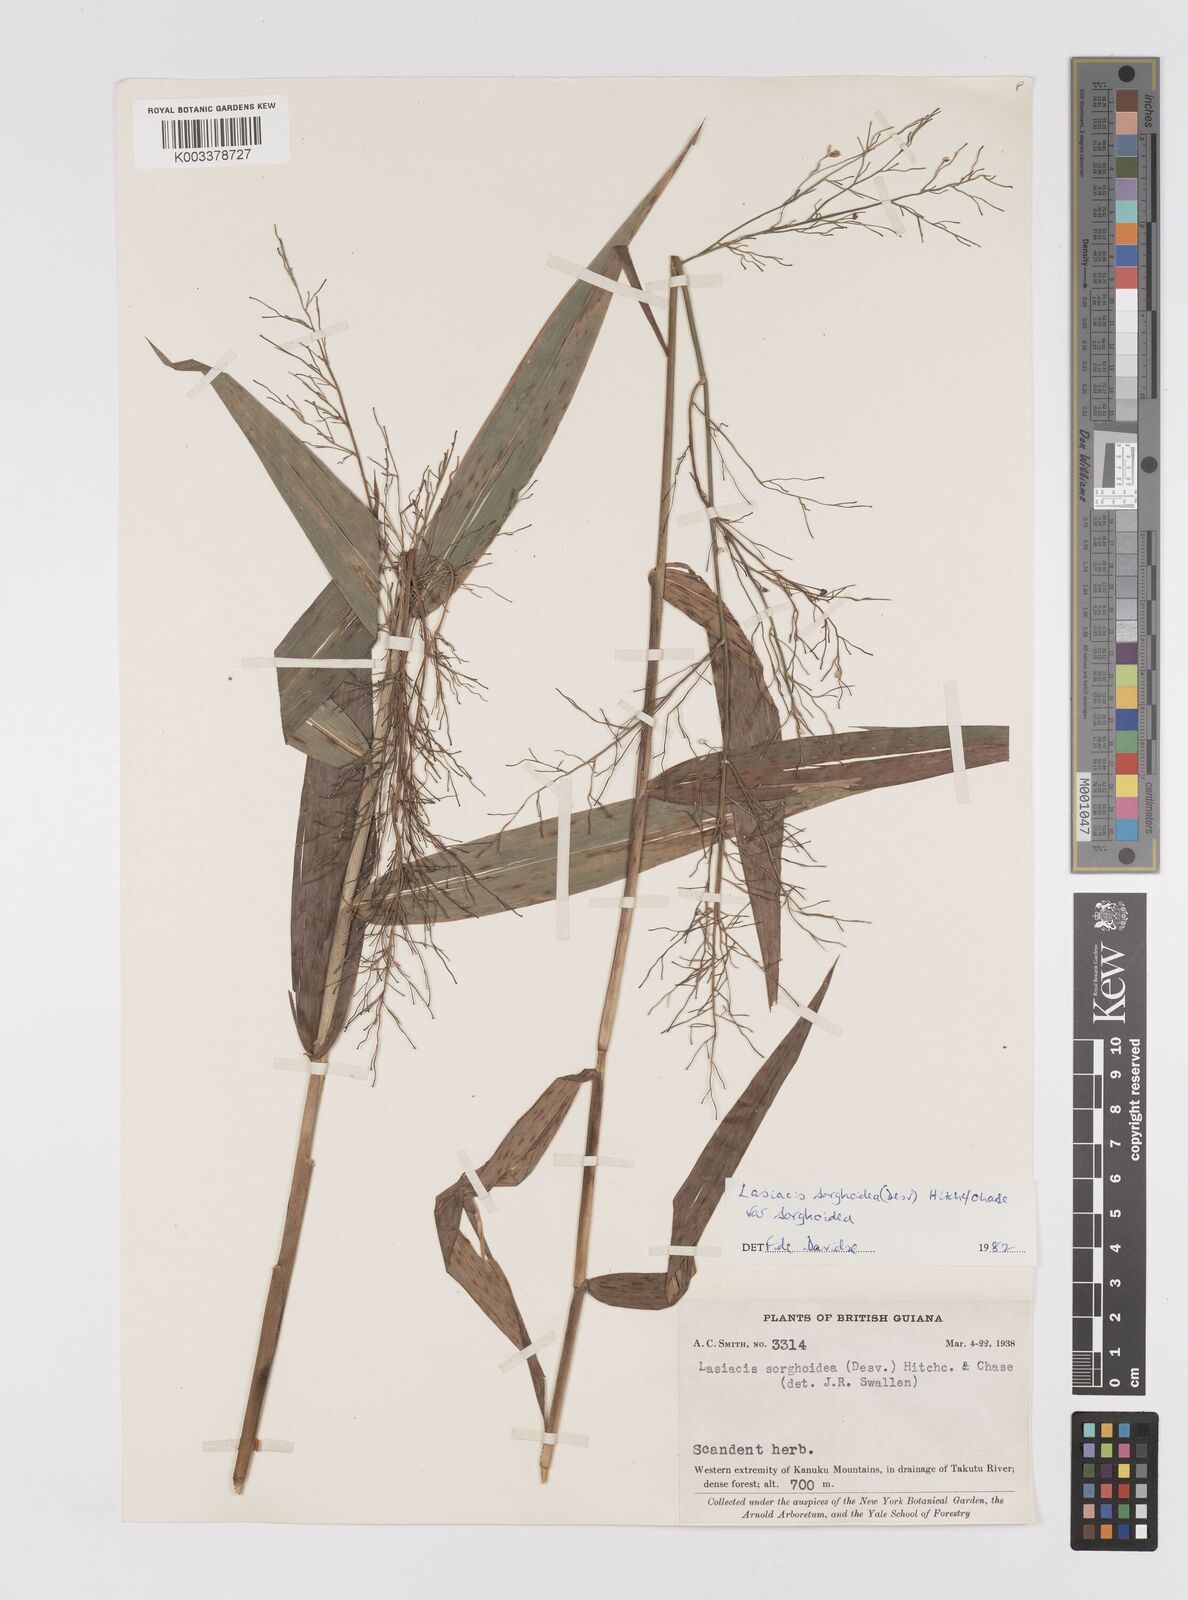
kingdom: Plantae
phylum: Tracheophyta
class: Liliopsida
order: Poales
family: Poaceae
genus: Lasiacis
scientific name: Lasiacis maculata
